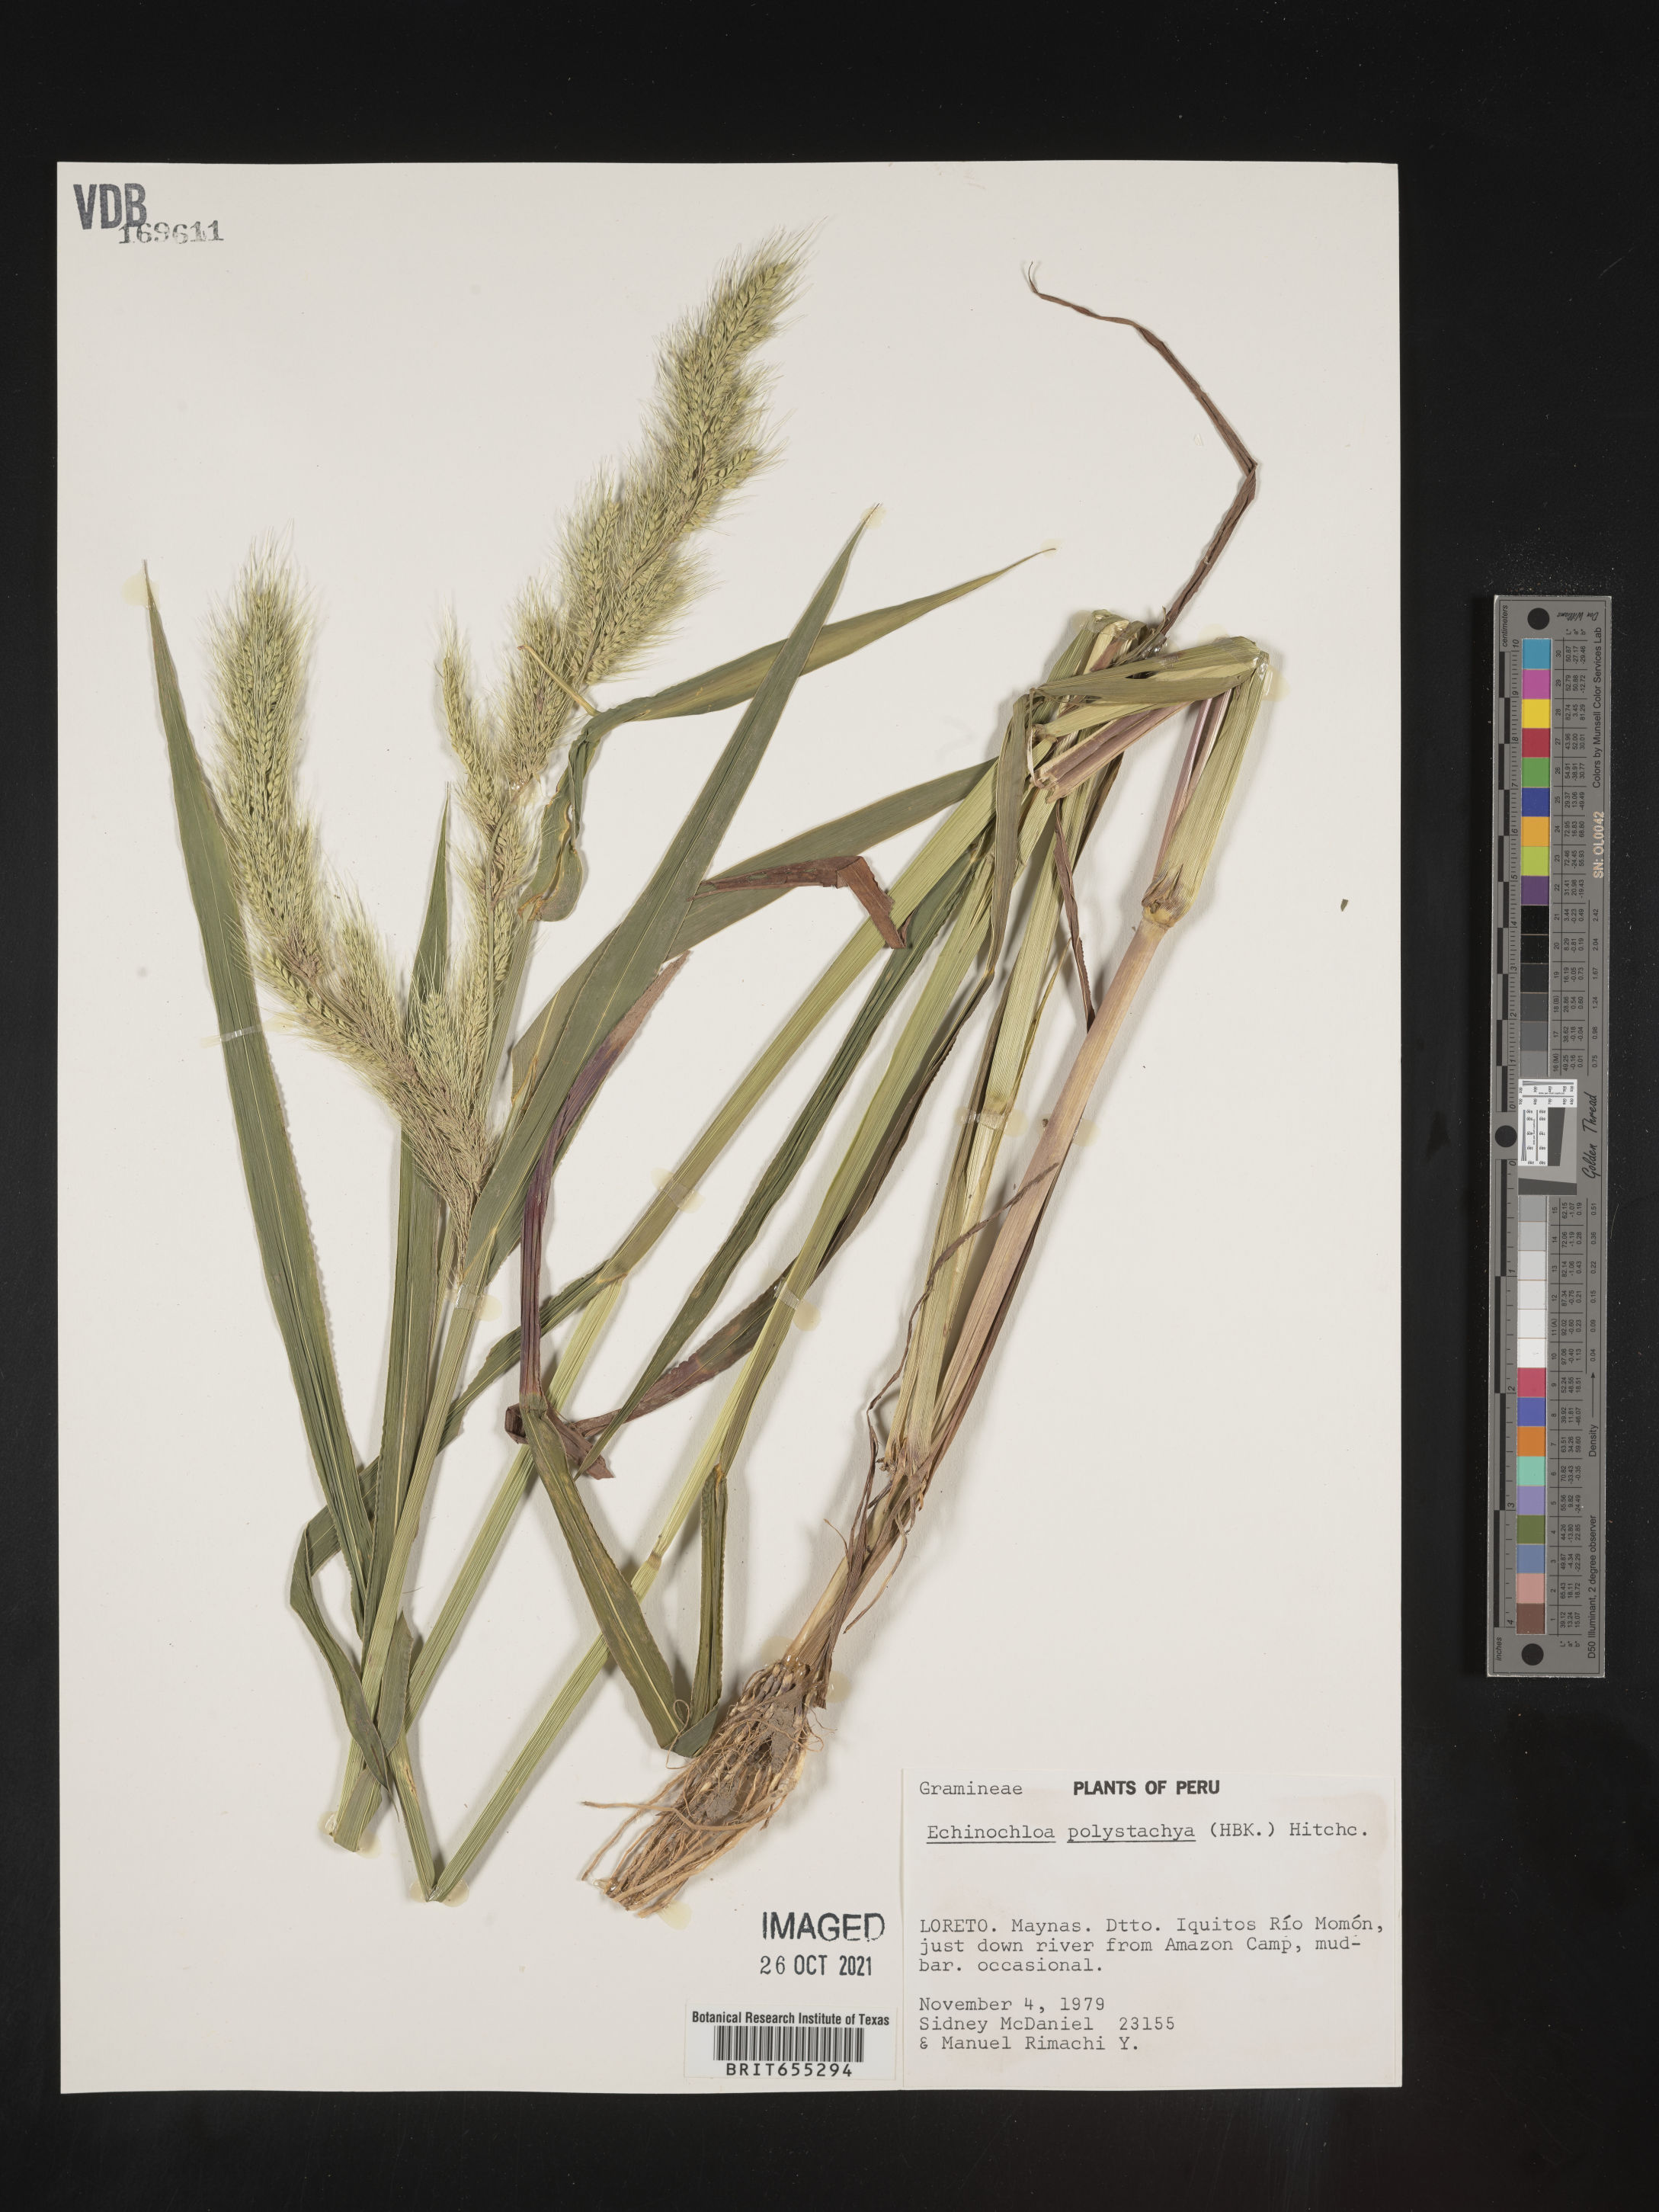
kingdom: Plantae
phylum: Tracheophyta
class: Liliopsida
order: Poales
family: Poaceae
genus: Echinochloa
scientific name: Echinochloa
